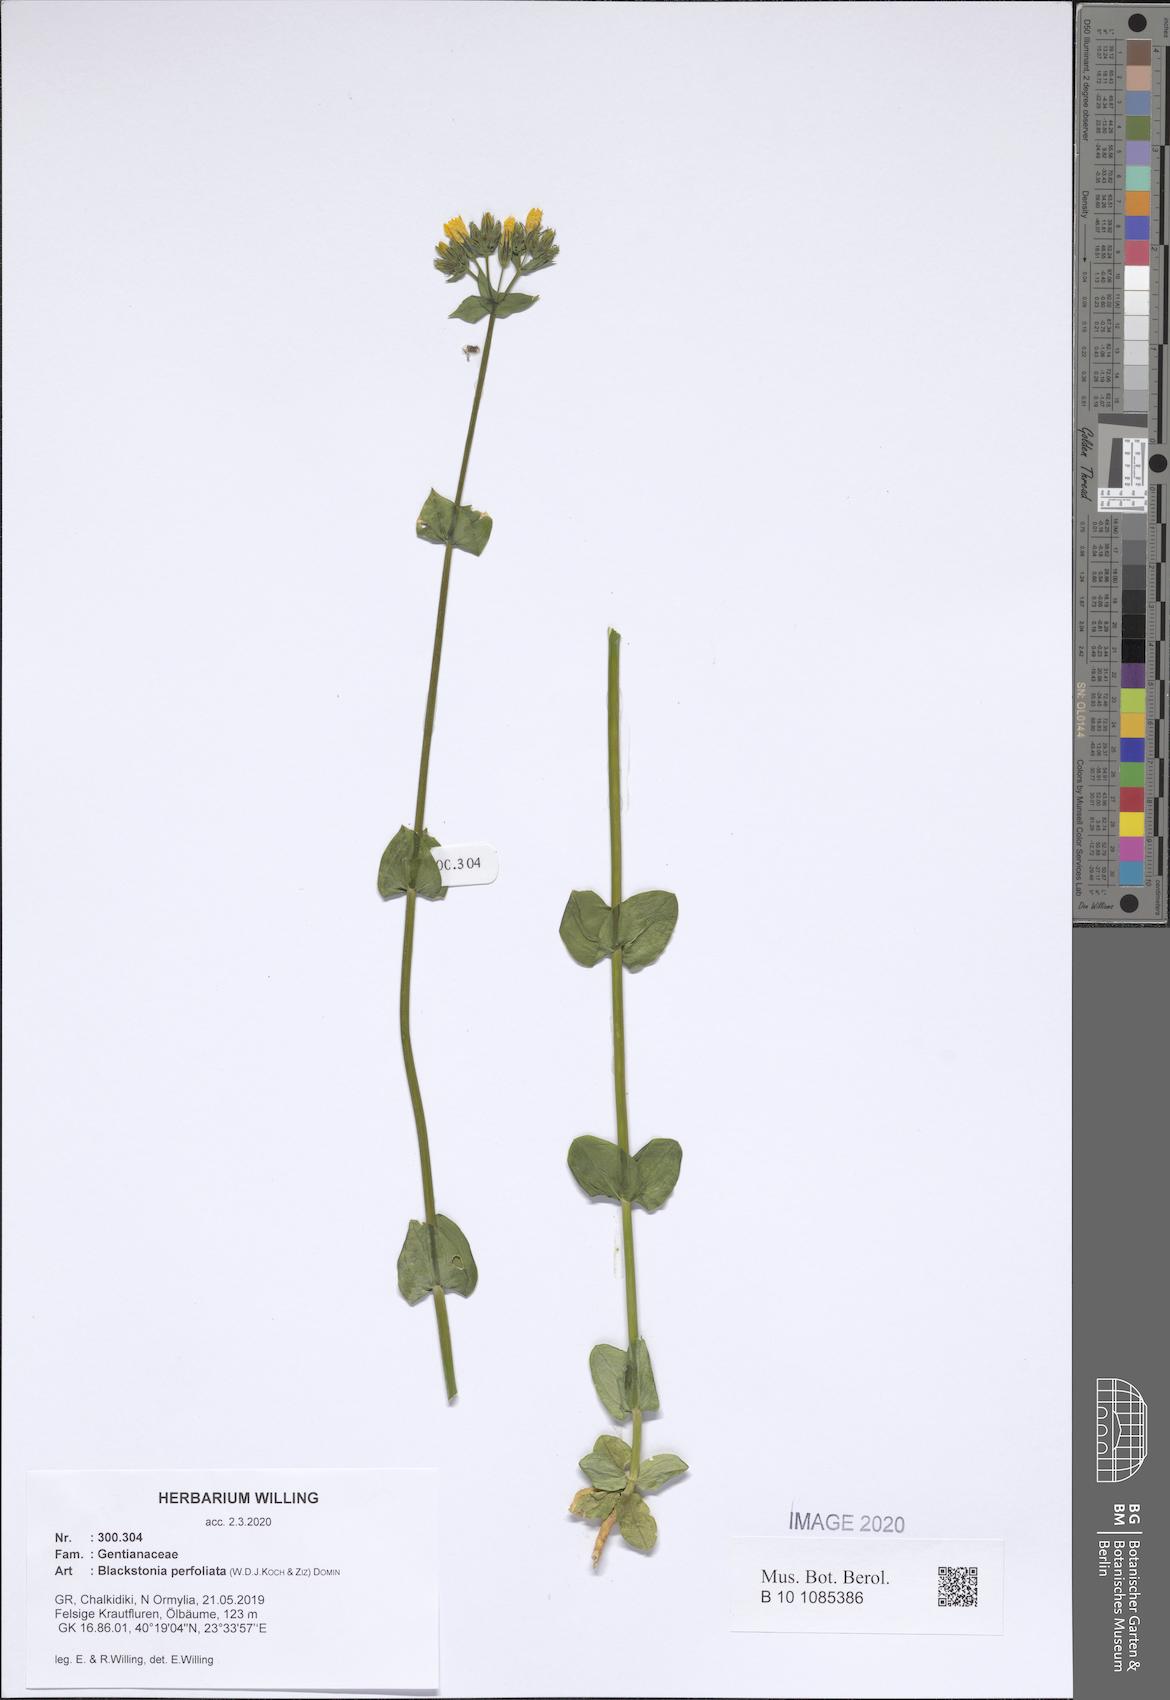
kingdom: Plantae
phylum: Tracheophyta
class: Magnoliopsida
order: Gentianales
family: Gentianaceae
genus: Blackstonia
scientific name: Blackstonia perfoliata
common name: Yellow-wort
